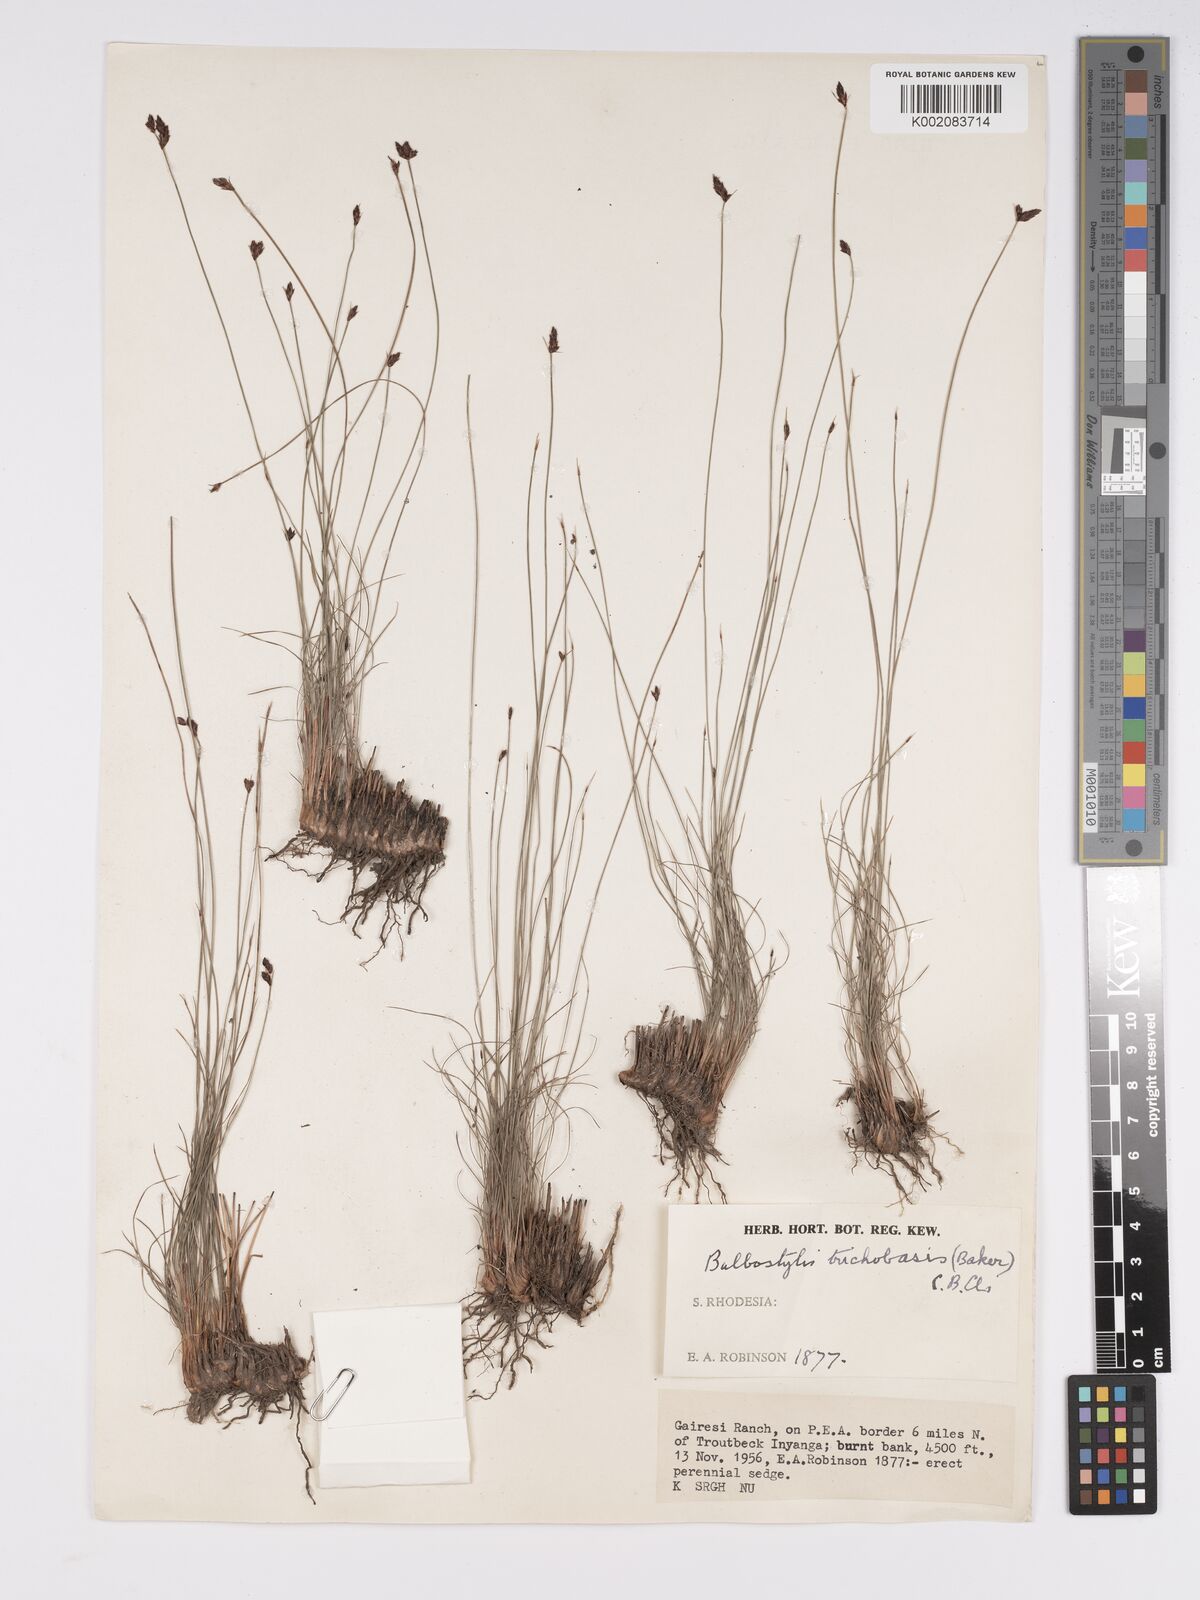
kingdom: Plantae
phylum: Tracheophyta
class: Liliopsida
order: Poales
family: Cyperaceae
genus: Bulbostylis
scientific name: Bulbostylis trichobasis
